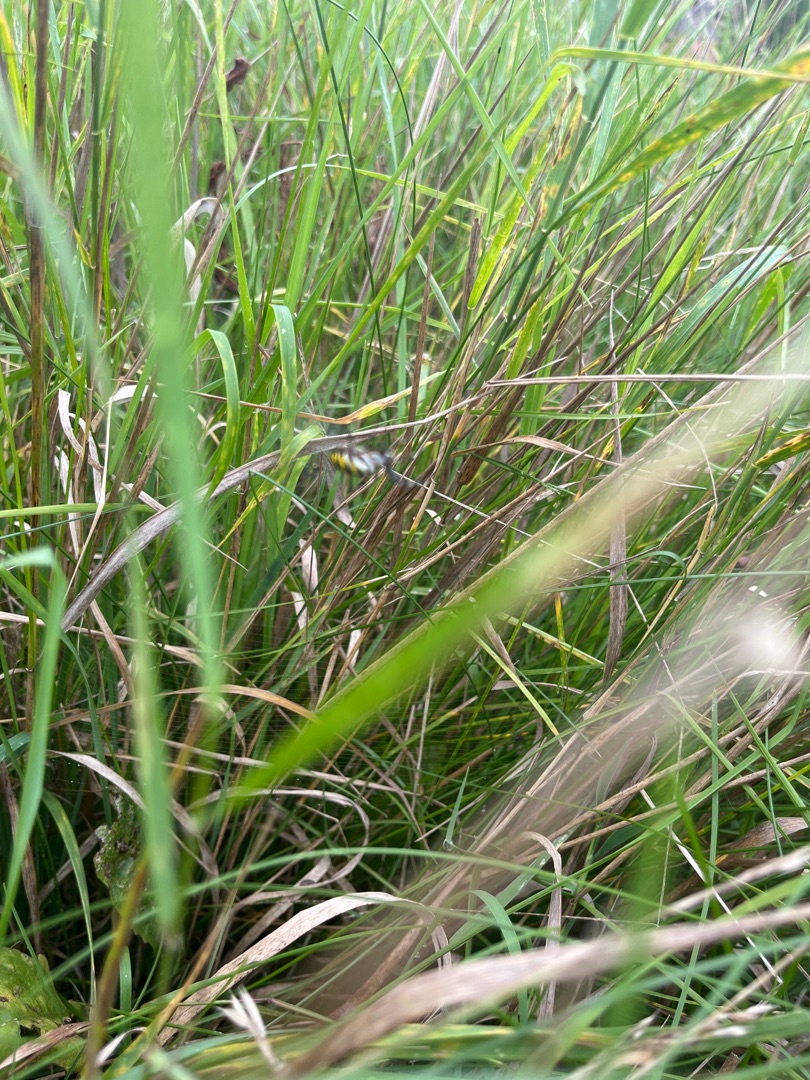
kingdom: Animalia
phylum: Arthropoda
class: Arachnida
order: Araneae
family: Araneidae
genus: Argiope
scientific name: Argiope bruennichi
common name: Hvepseedderkop
